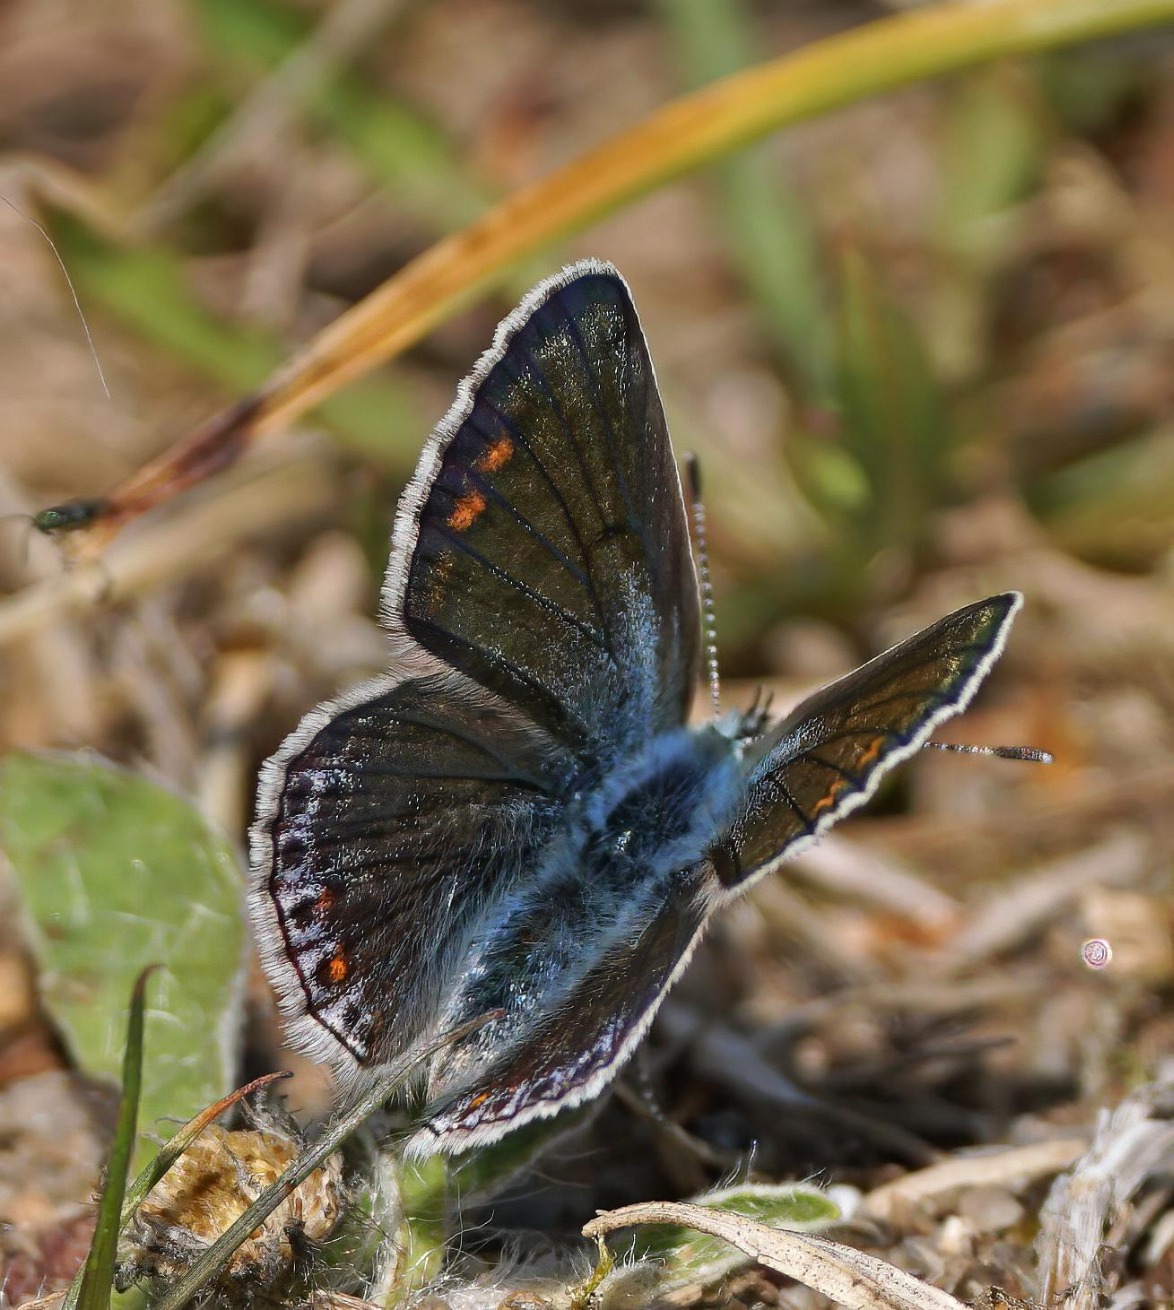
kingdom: Animalia
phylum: Arthropoda
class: Insecta
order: Lepidoptera
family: Lycaenidae
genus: Polyommatus
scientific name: Polyommatus icarus
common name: Almindelig blåfugl
